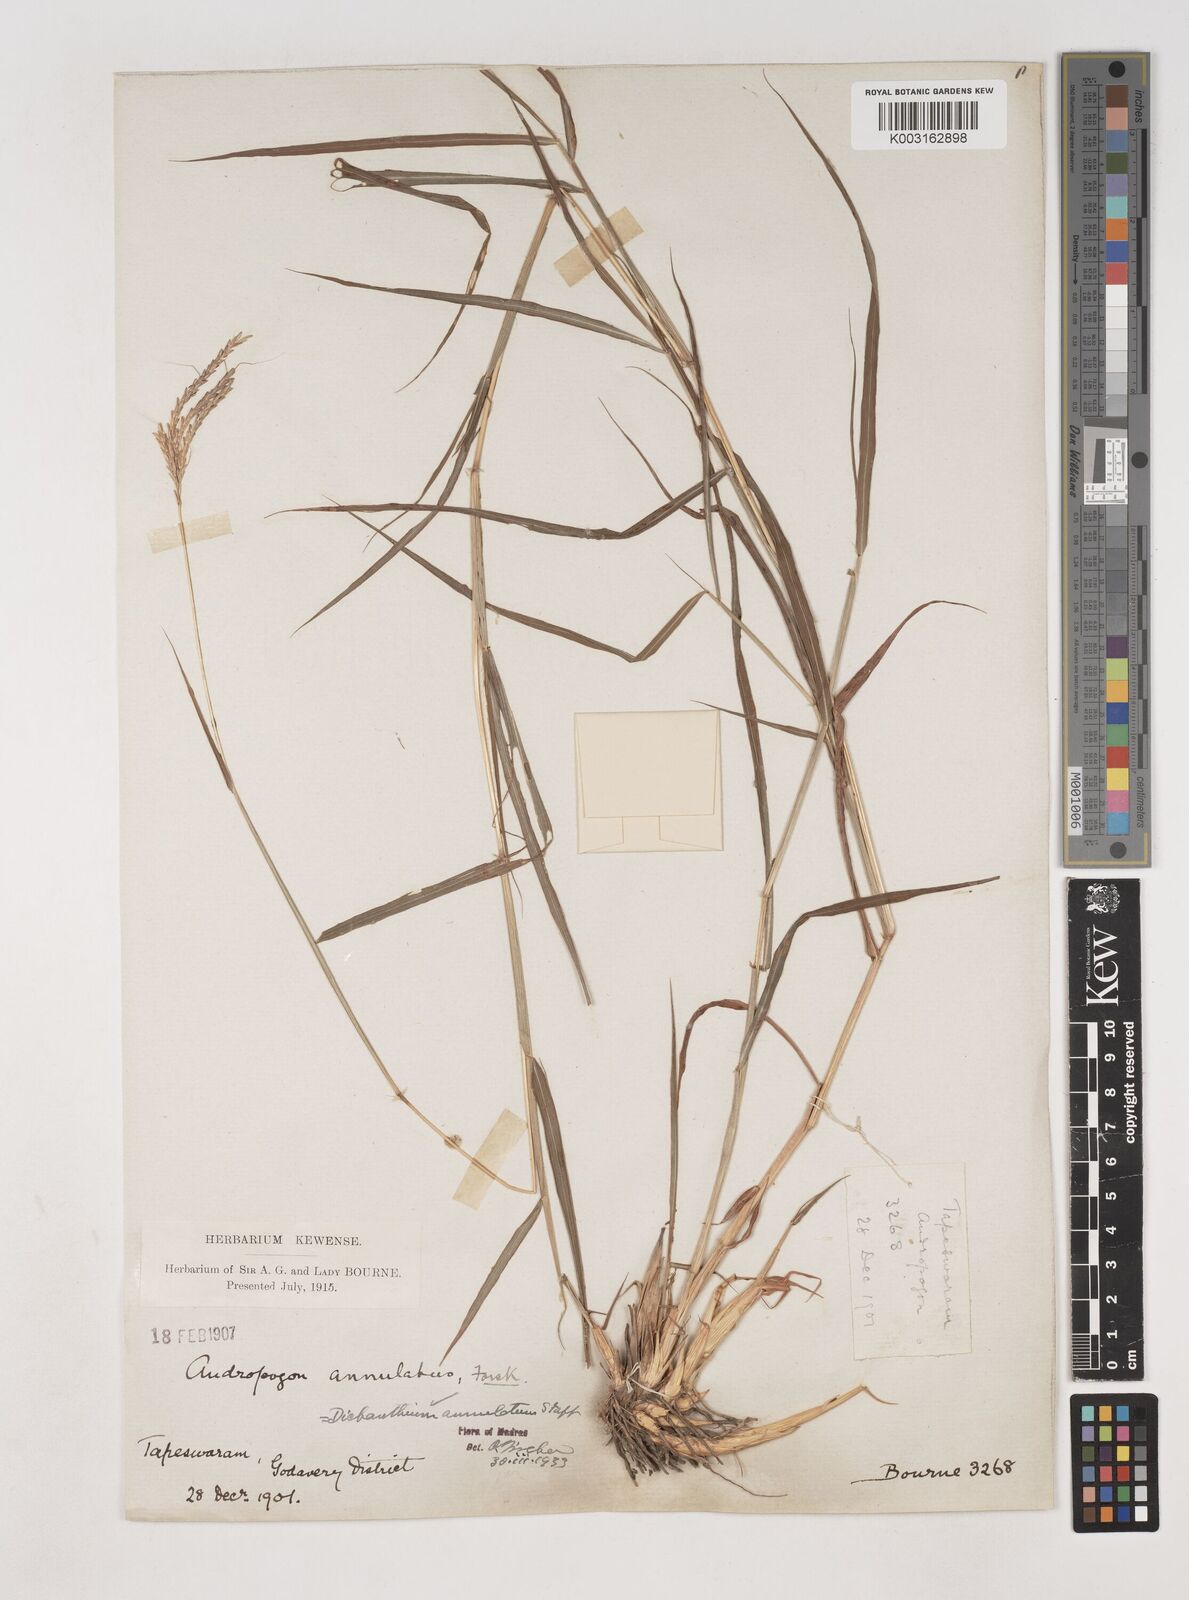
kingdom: Plantae
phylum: Tracheophyta
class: Liliopsida
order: Poales
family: Poaceae
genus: Dichanthium
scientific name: Dichanthium annulatum
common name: Kleberg's bluestem
